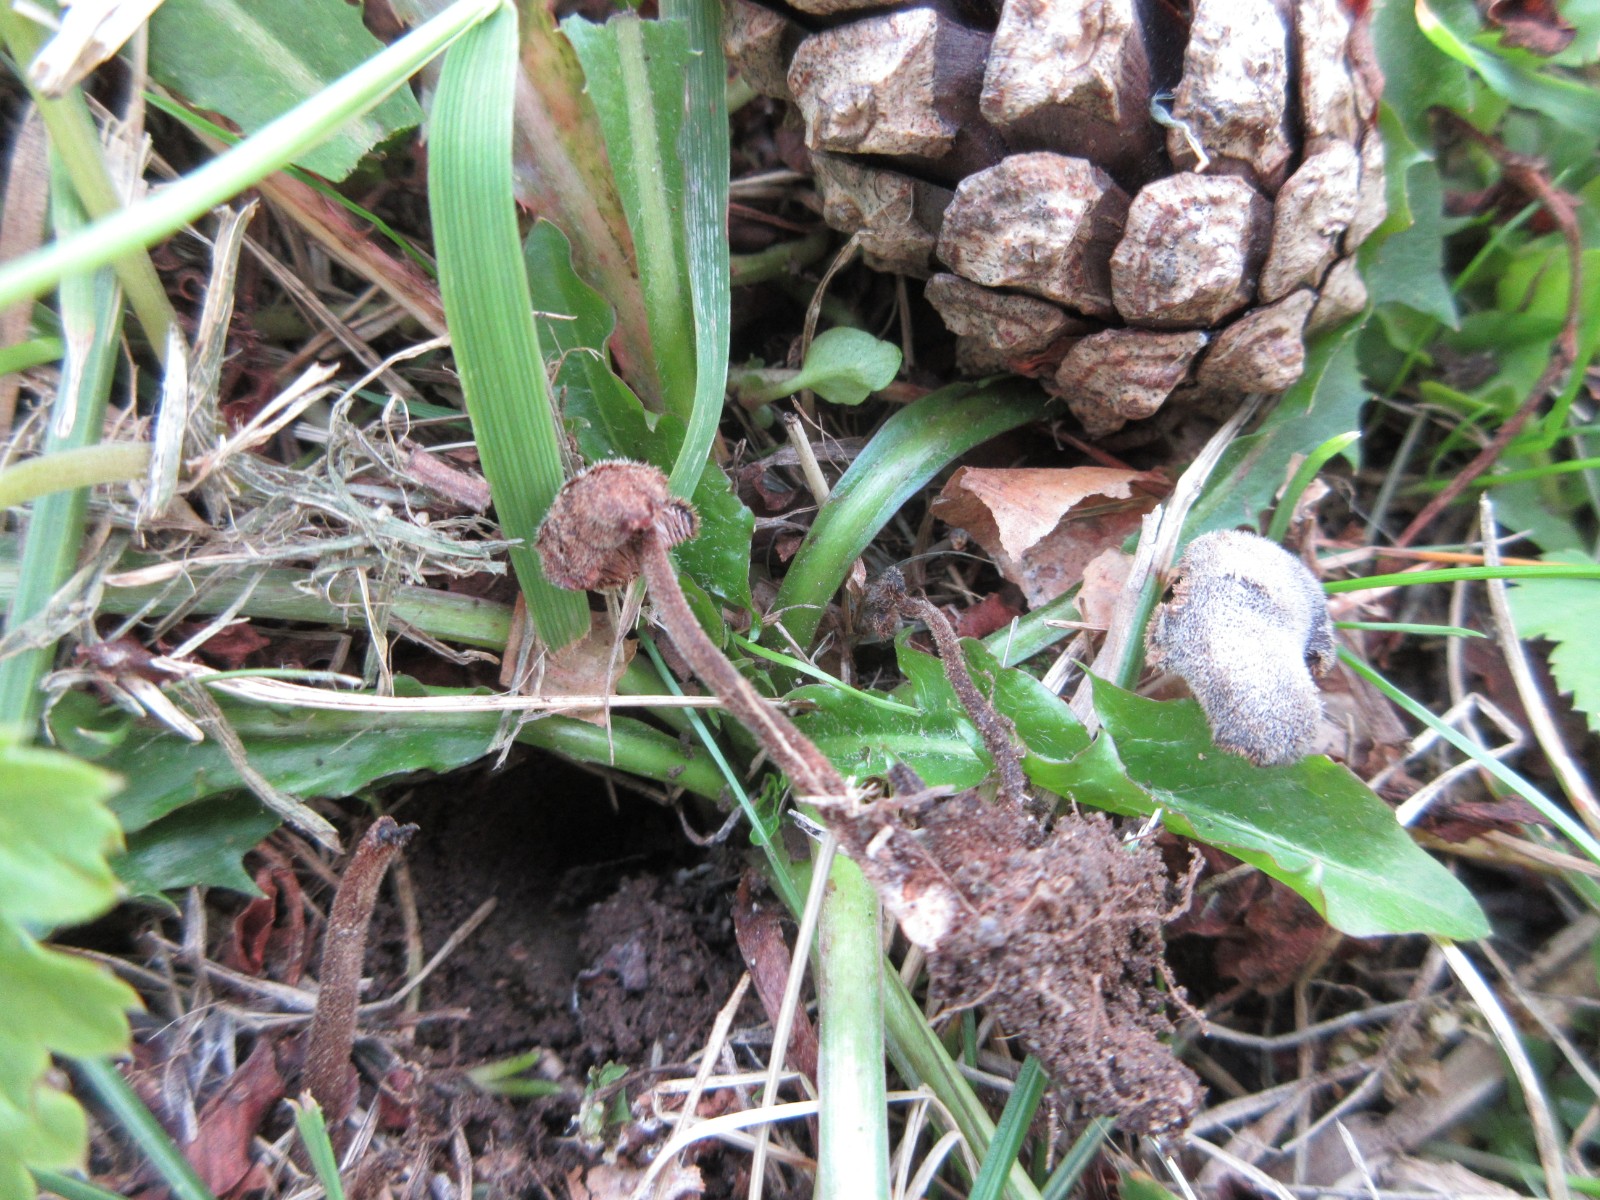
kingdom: Fungi
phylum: Basidiomycota
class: Agaricomycetes
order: Russulales
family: Auriscalpiaceae
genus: Auriscalpium
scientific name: Auriscalpium vulgare
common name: koglepigsvamp
